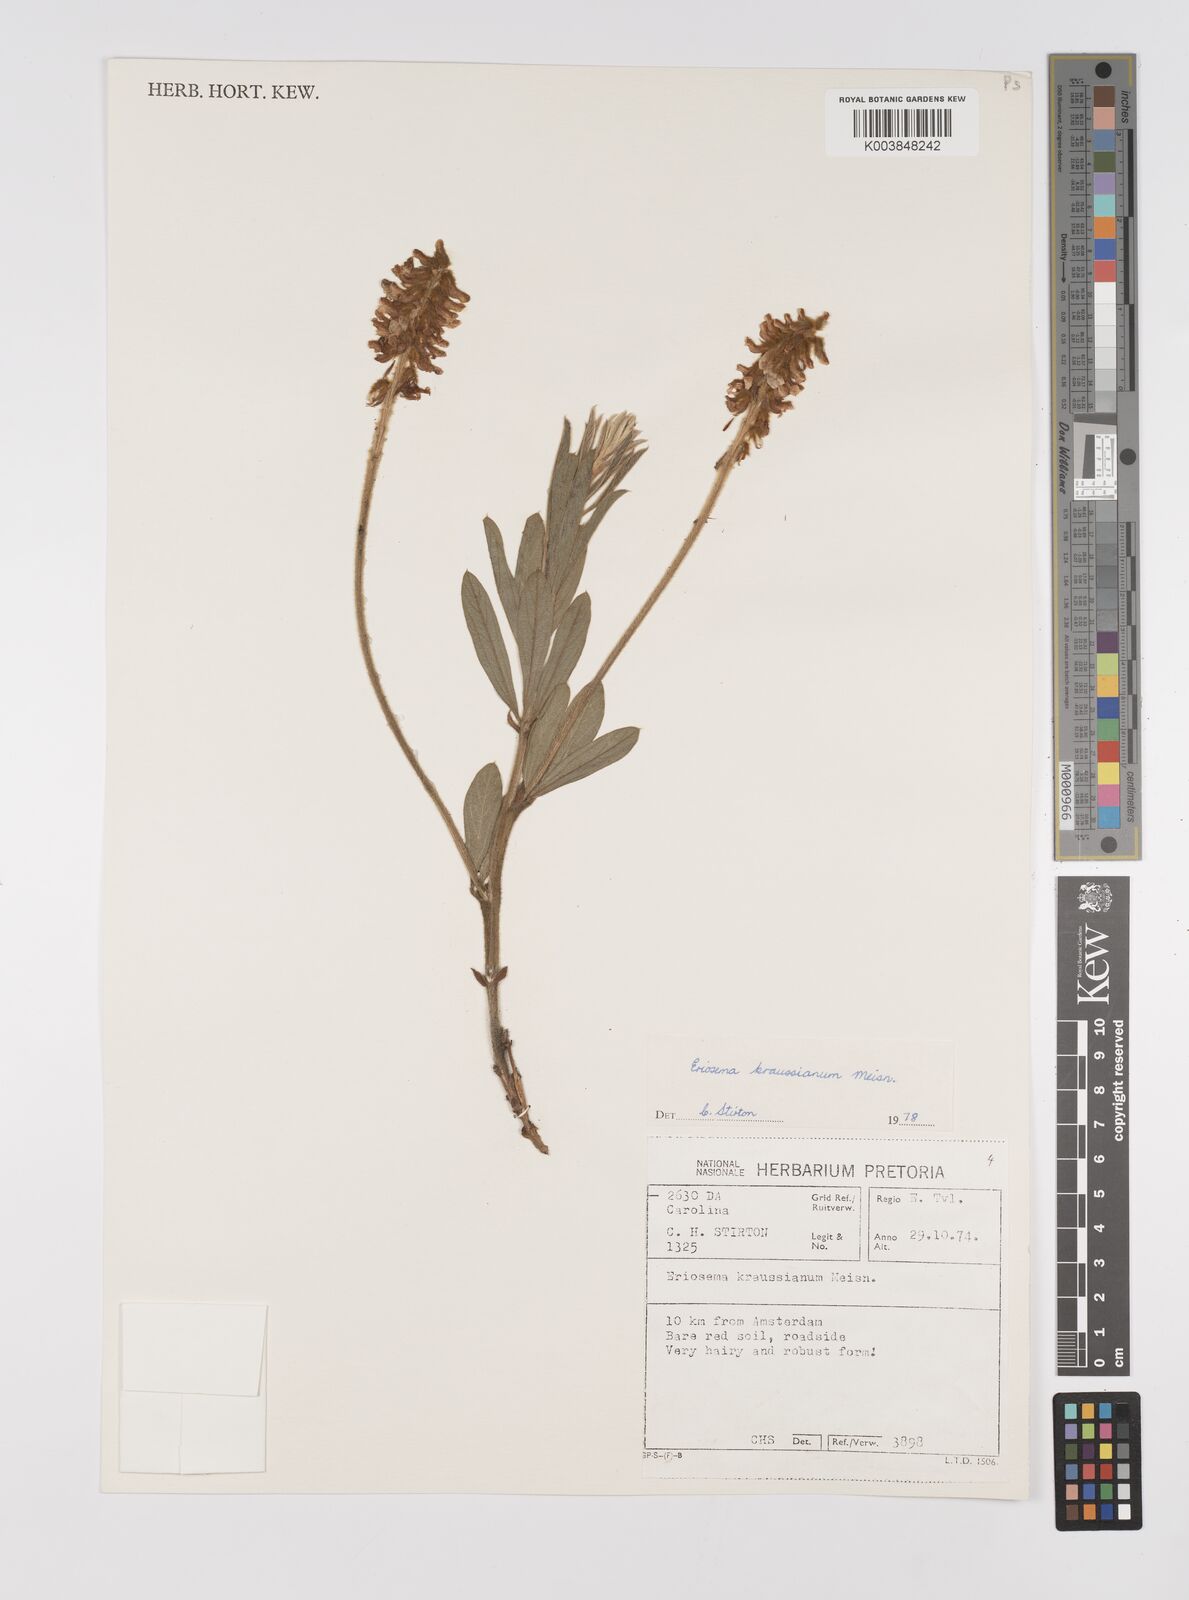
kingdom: Plantae
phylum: Tracheophyta
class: Magnoliopsida
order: Fabales
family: Fabaceae
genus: Eriosema
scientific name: Eriosema kraussianum
